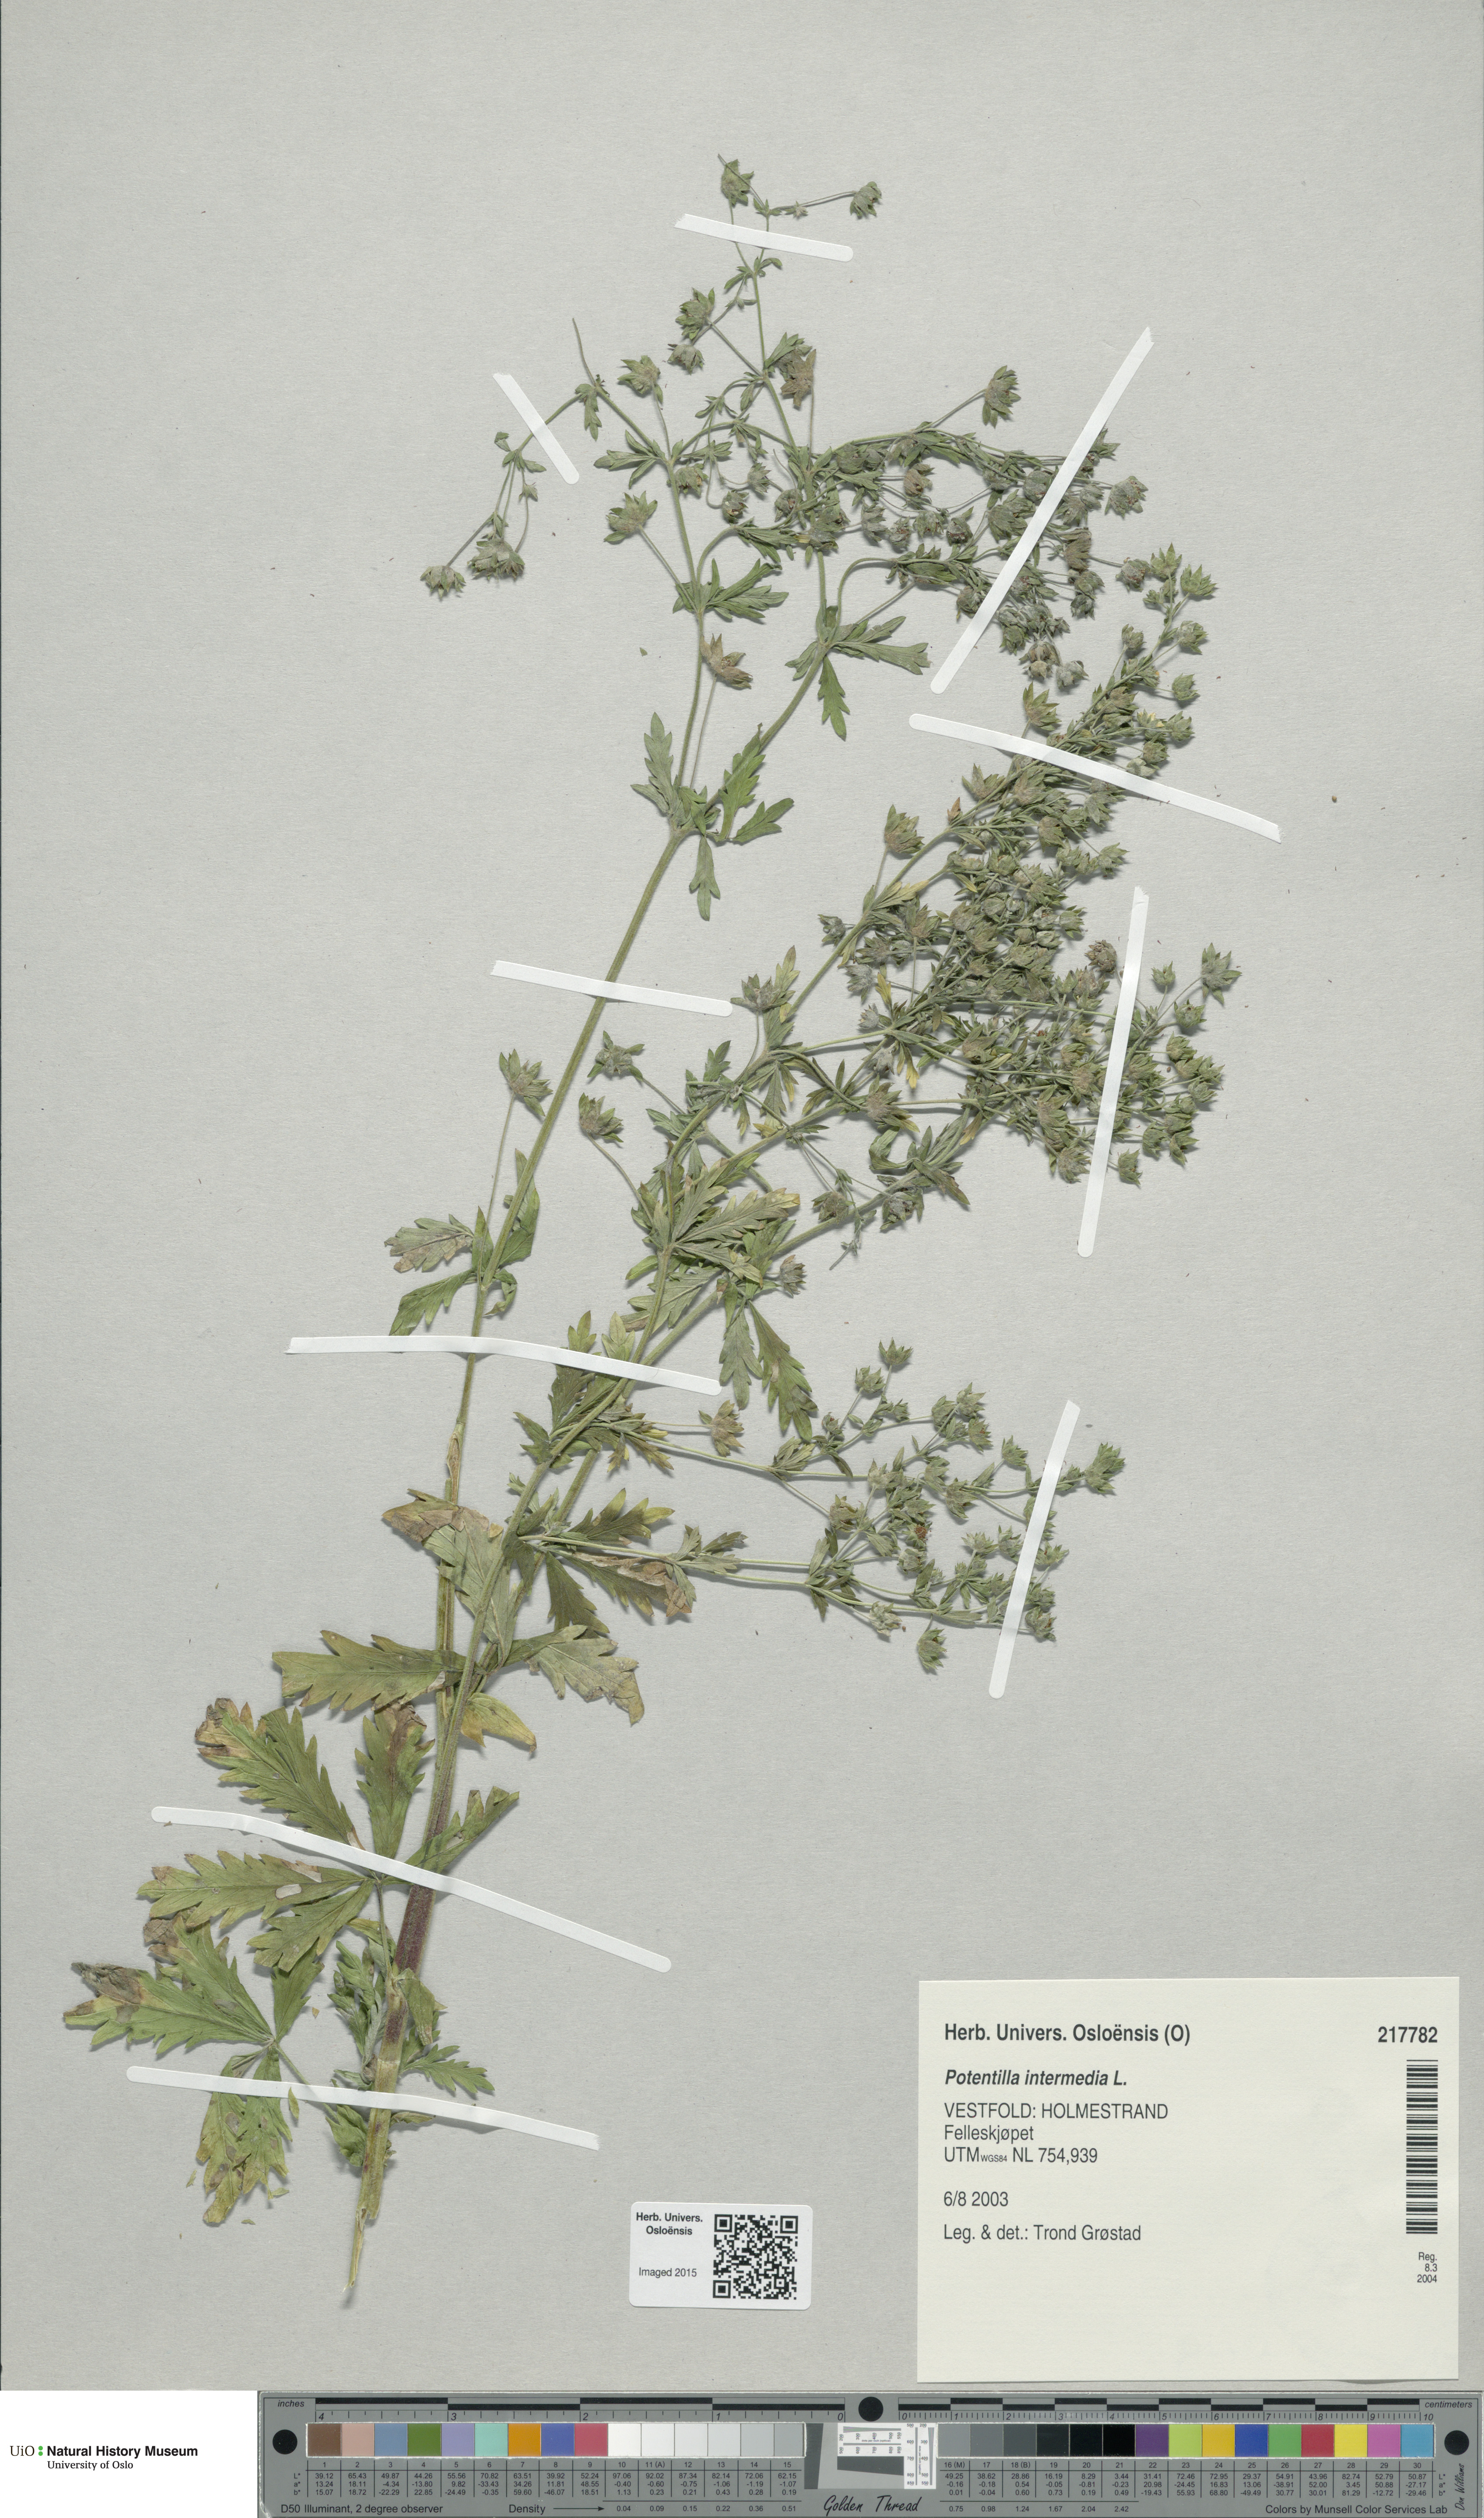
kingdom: Plantae
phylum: Tracheophyta
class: Magnoliopsida
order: Rosales
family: Rosaceae
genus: Potentilla
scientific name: Potentilla intermedia
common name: Downy cinquefoil
